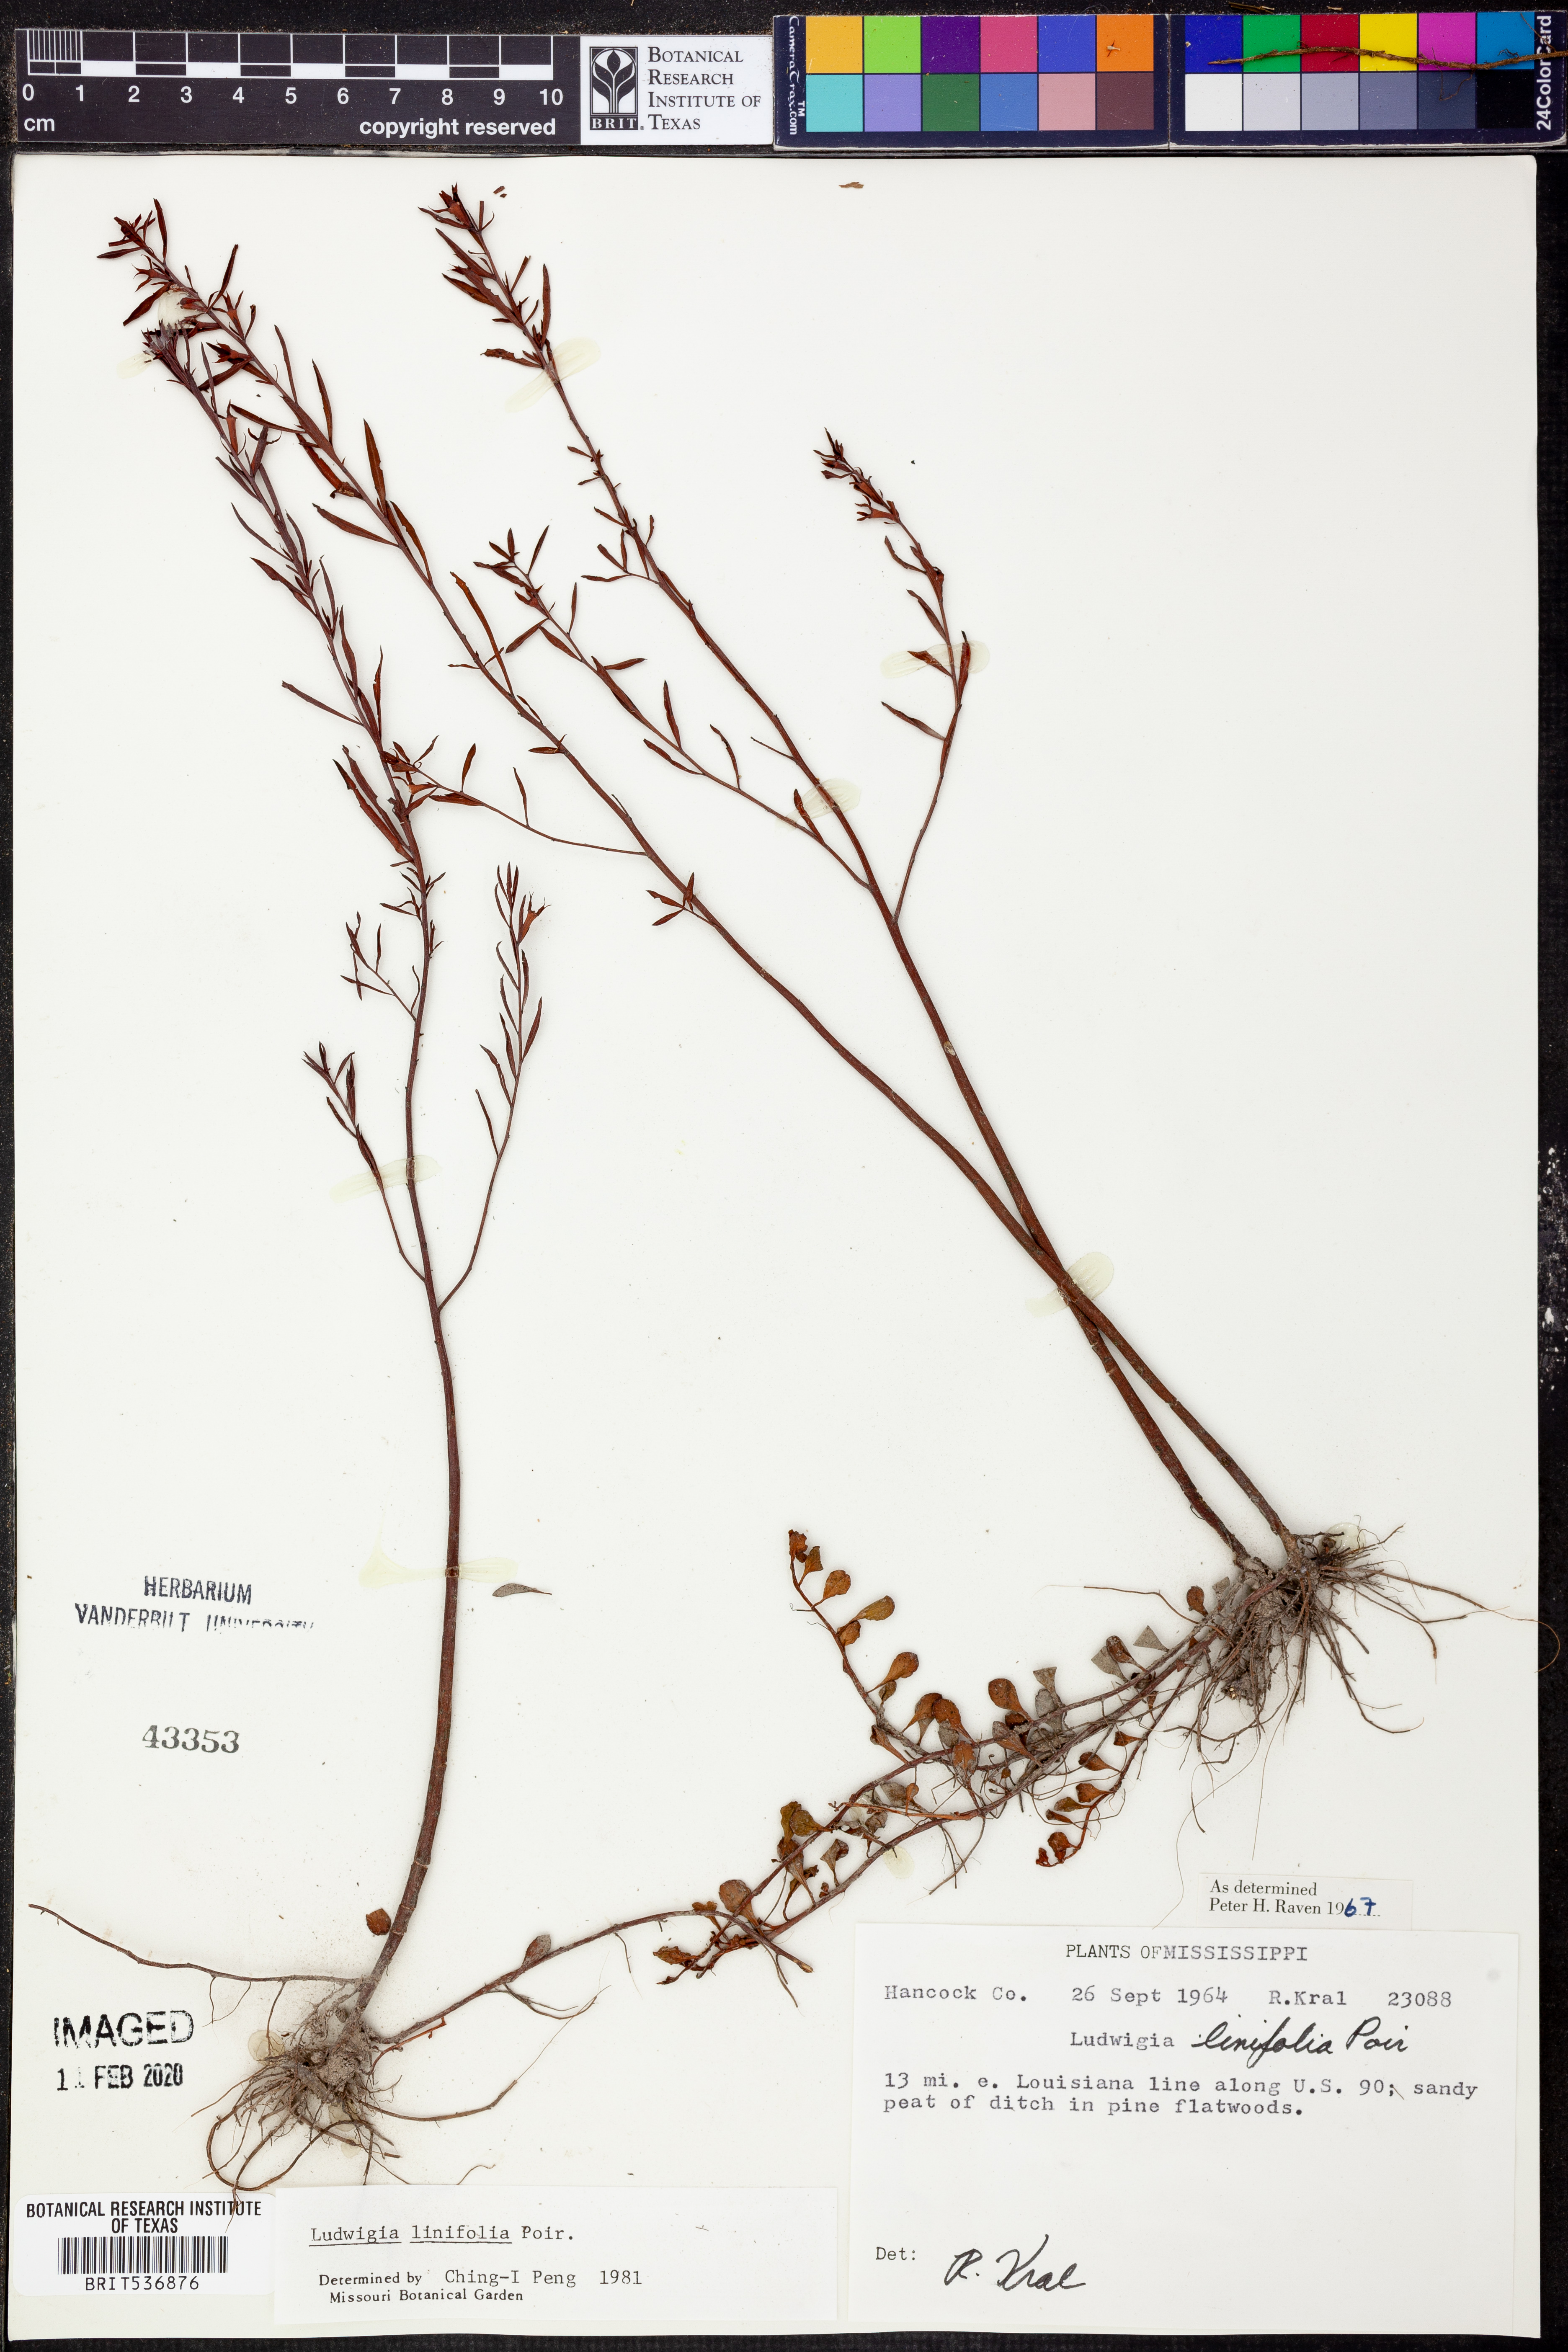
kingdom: Plantae
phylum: Tracheophyta
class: Magnoliopsida
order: Myrtales
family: Onagraceae
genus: Ludwigia
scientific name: Ludwigia linifolia
